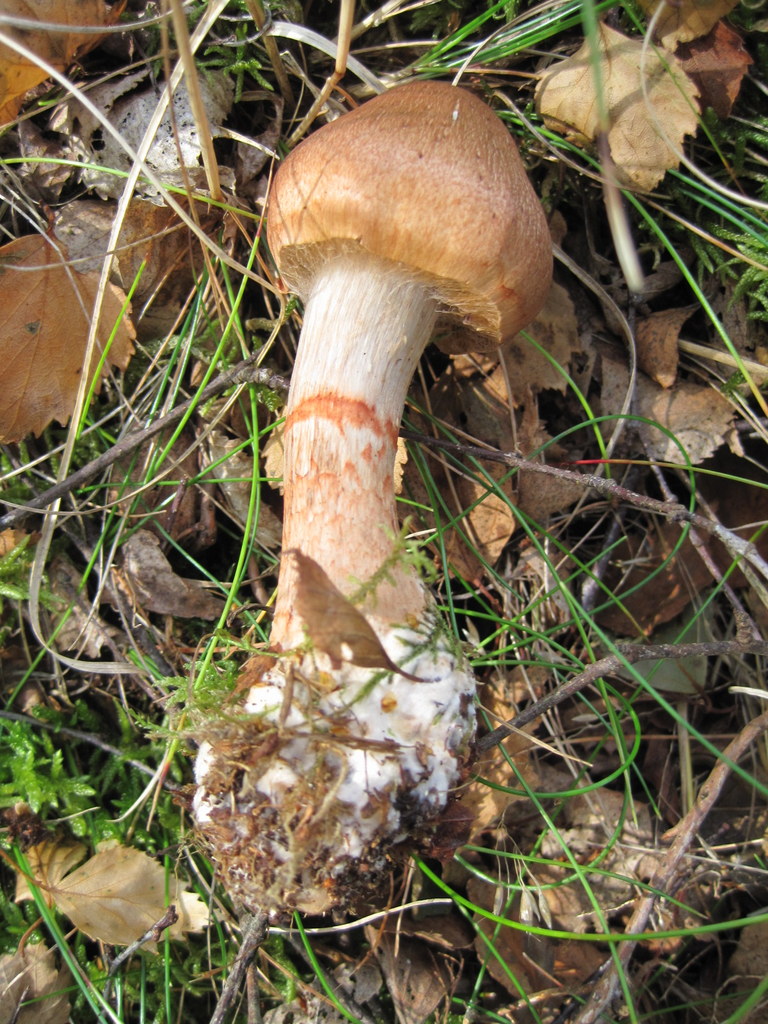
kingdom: Fungi
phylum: Basidiomycota
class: Agaricomycetes
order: Agaricales
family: Cortinariaceae
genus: Cortinarius
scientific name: Cortinarius armillatus
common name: cinnoberbæltet slørhat
